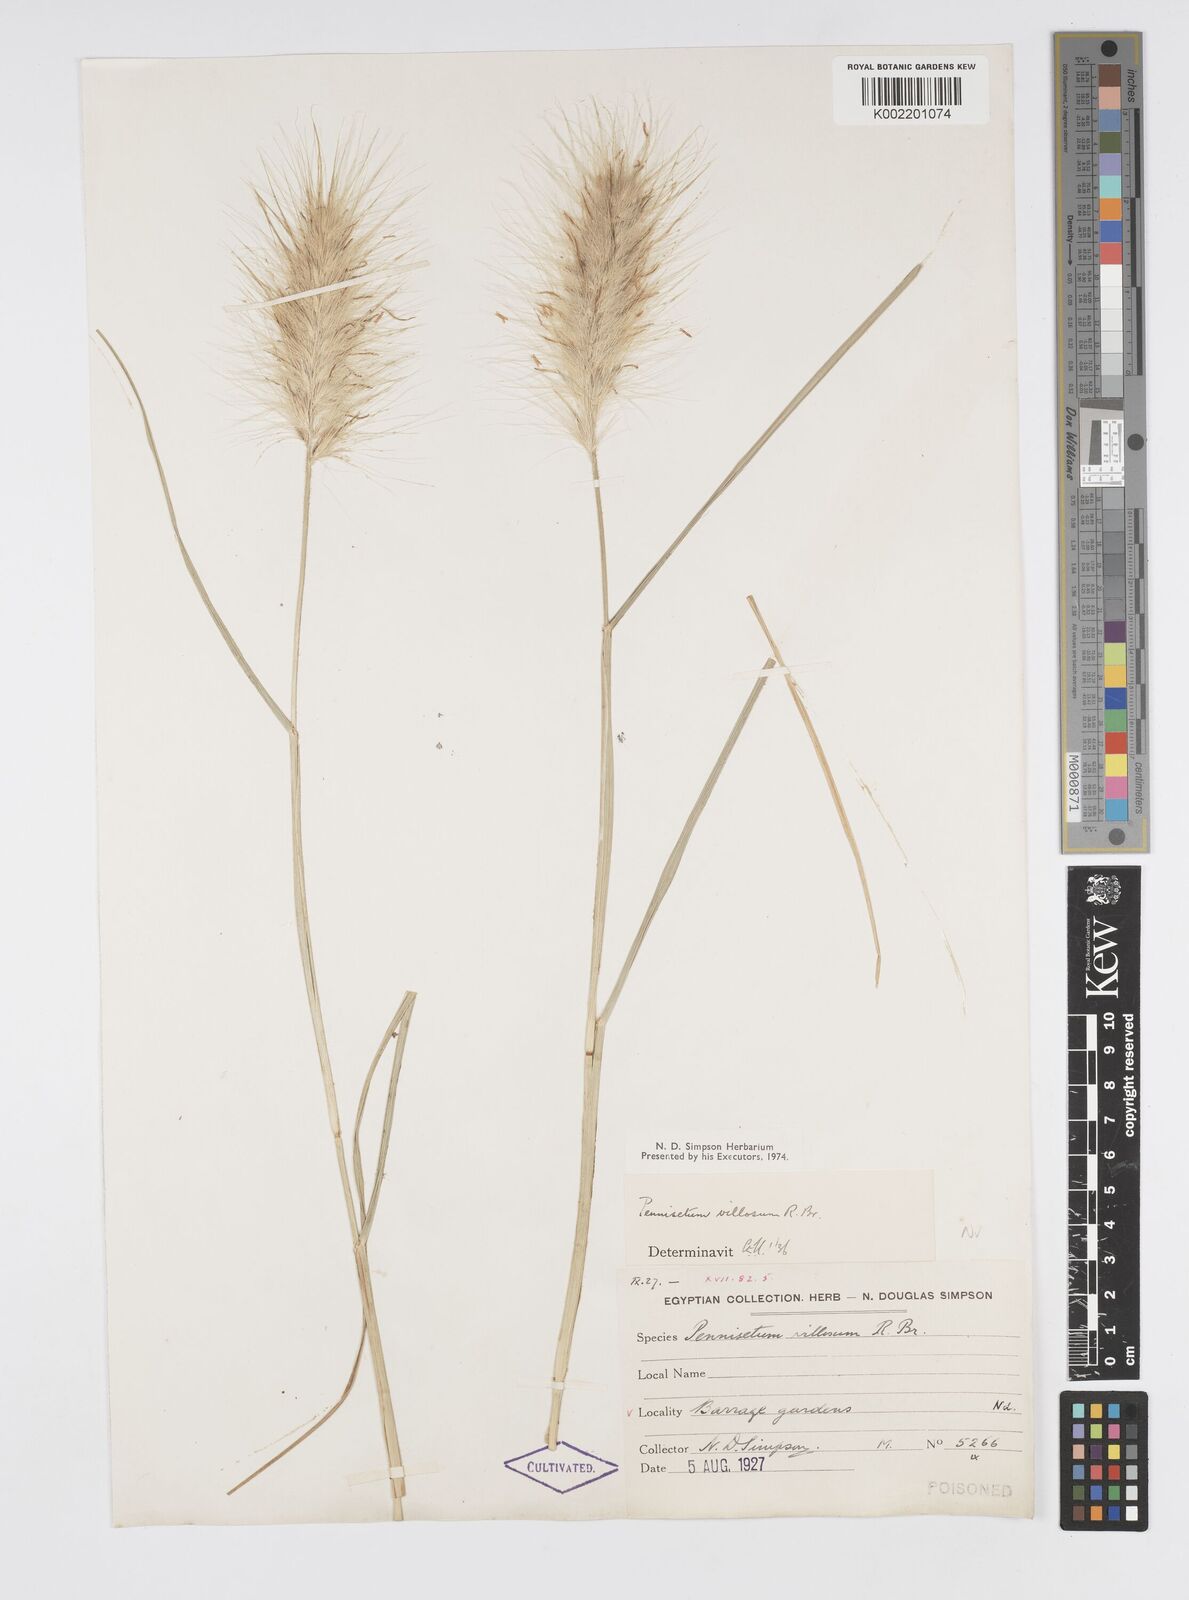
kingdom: Plantae
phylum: Tracheophyta
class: Liliopsida
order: Poales
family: Poaceae
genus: Cenchrus
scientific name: Cenchrus longisetus
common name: Feathertop
